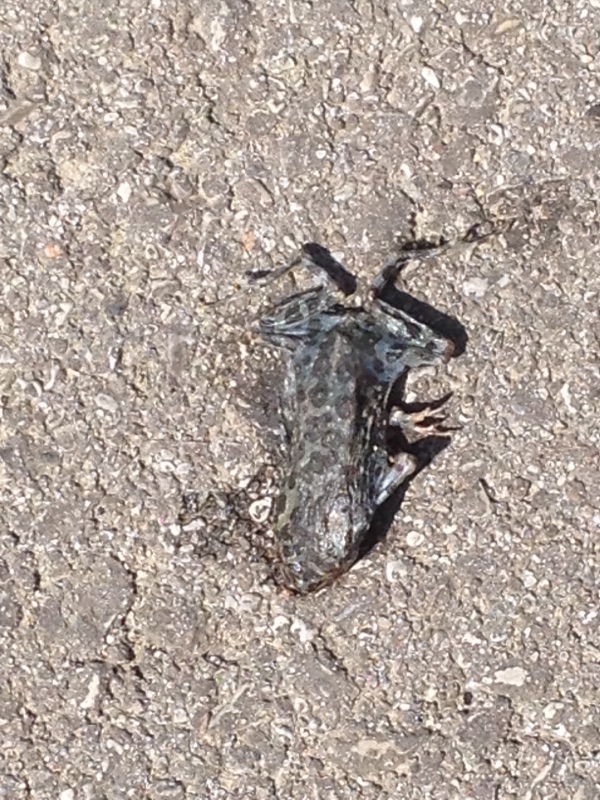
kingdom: Animalia
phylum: Chordata
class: Amphibia
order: Anura
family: Bufonidae
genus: Bufotes
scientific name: Bufotes viridis
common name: European green toad
